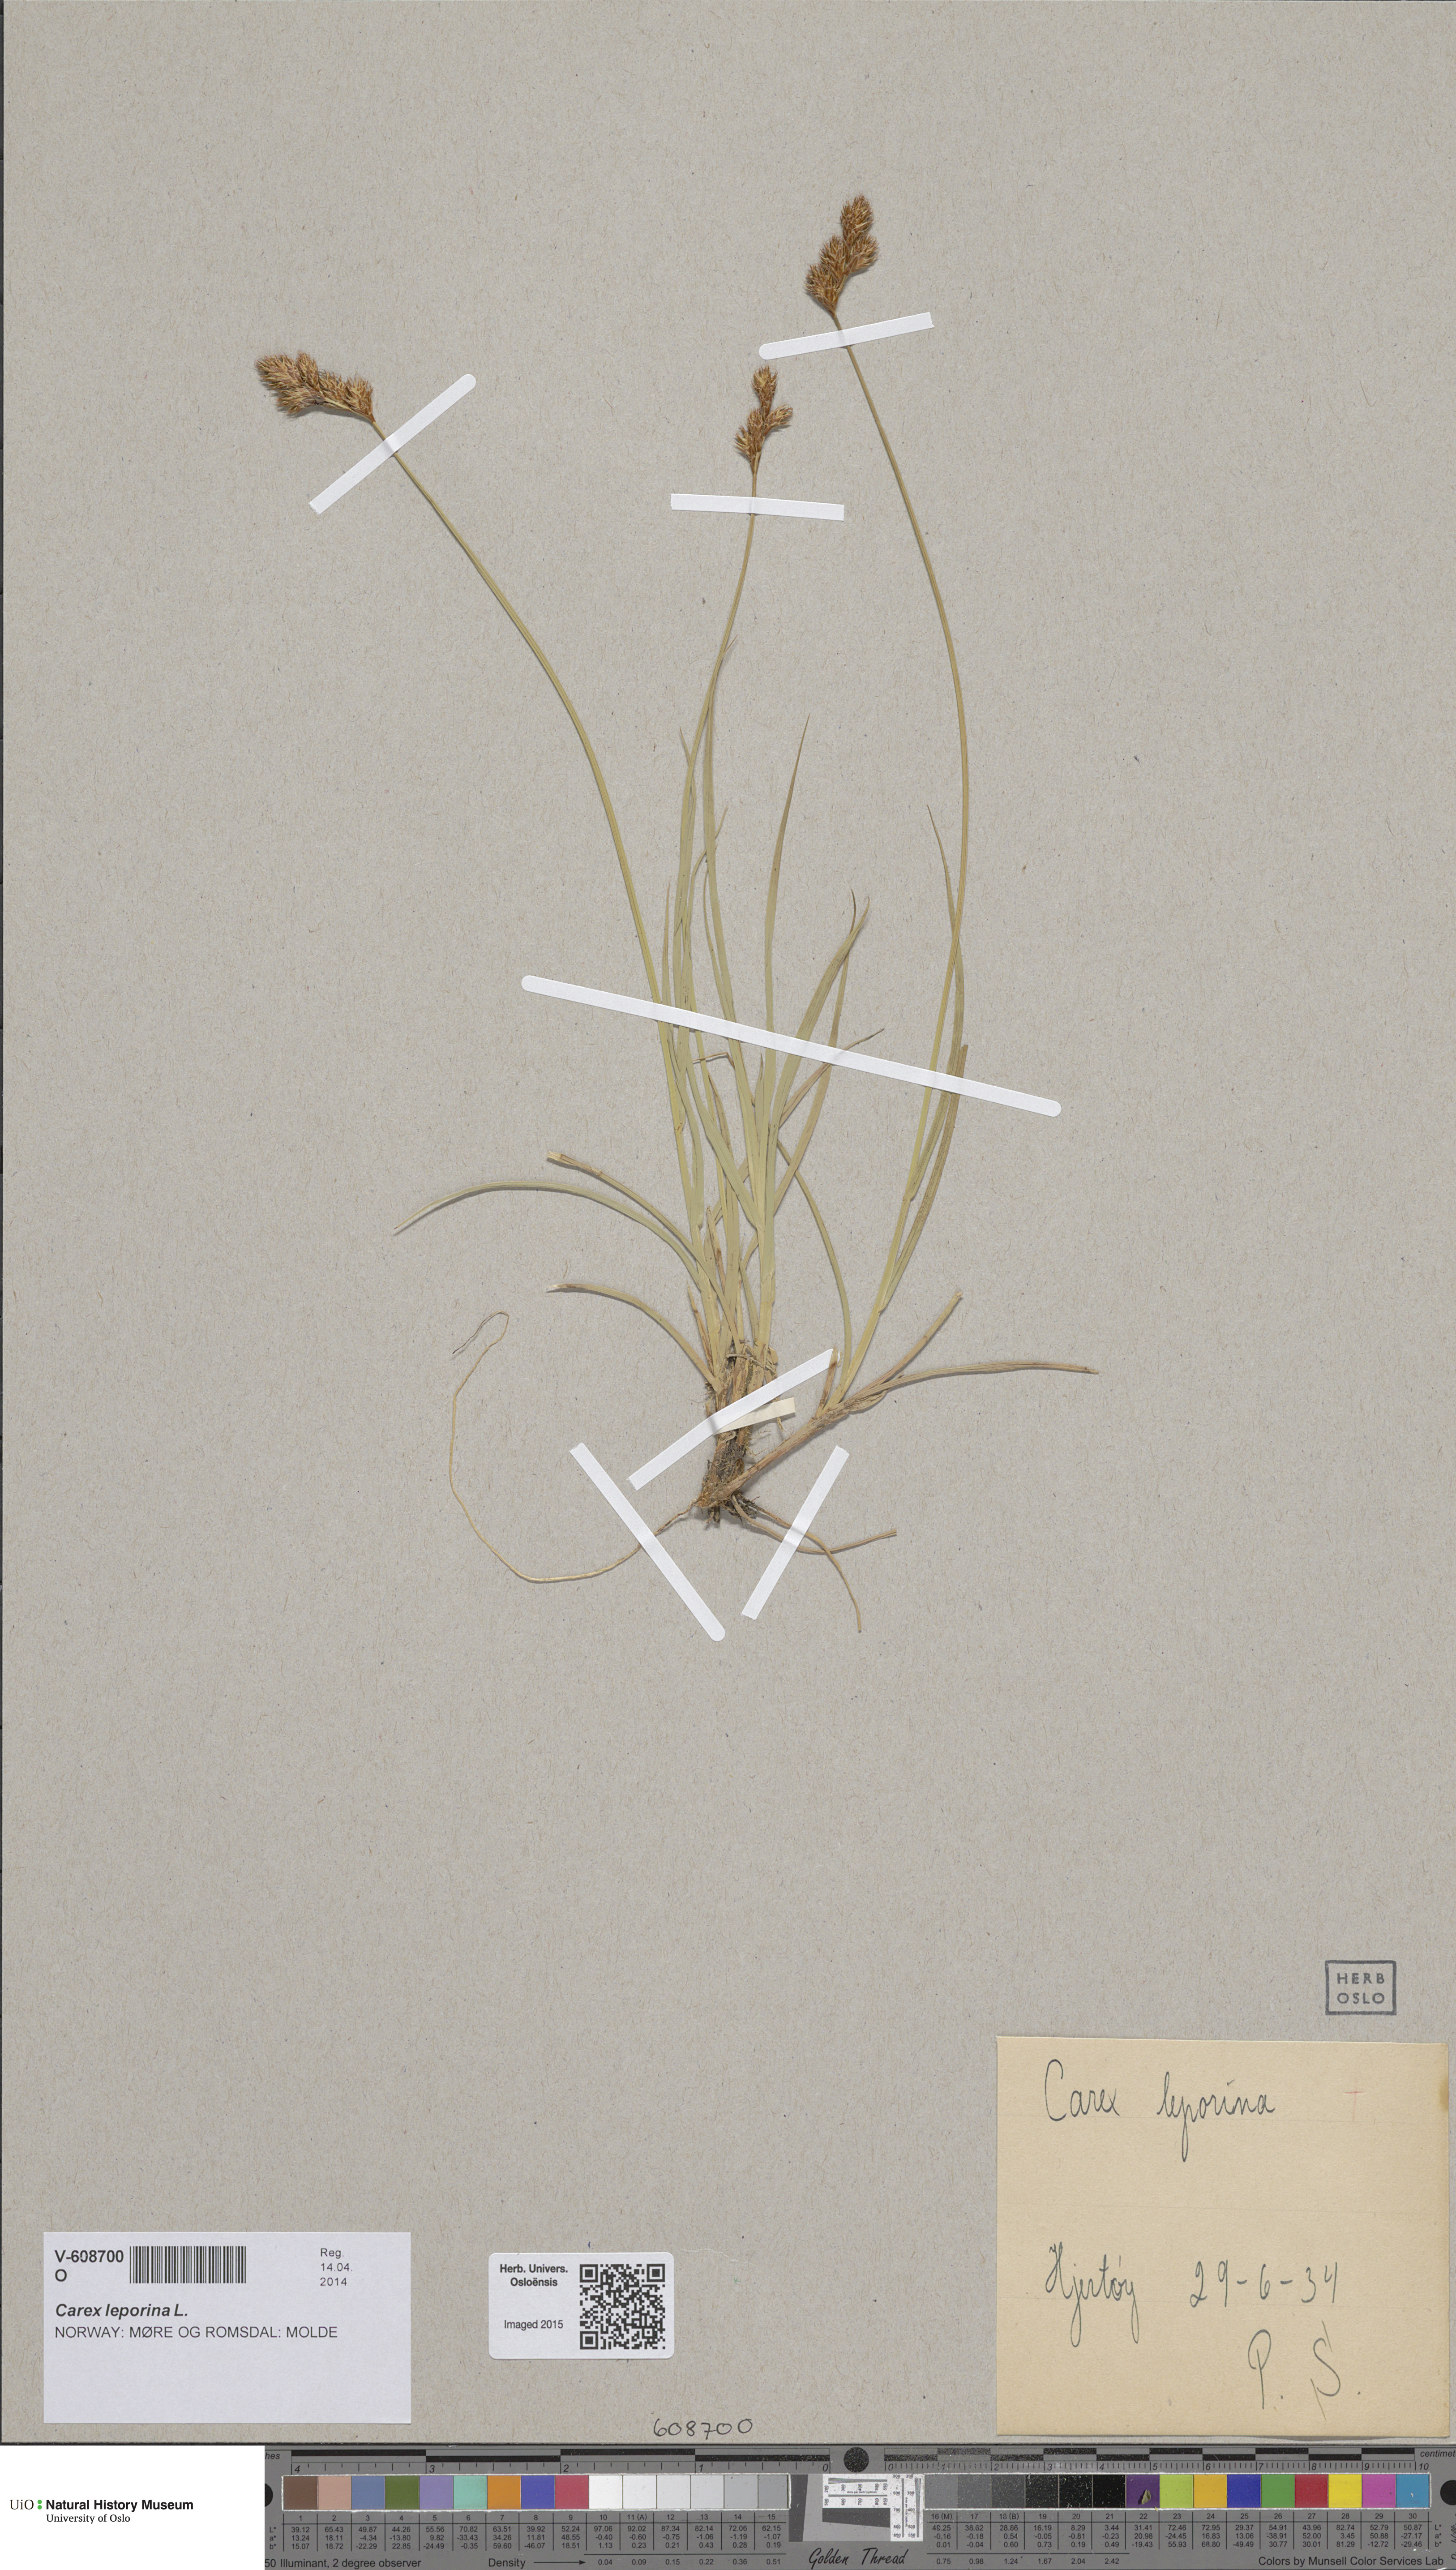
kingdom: Plantae
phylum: Tracheophyta
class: Liliopsida
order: Poales
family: Cyperaceae
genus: Carex
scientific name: Carex leporina
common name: Oval sedge
